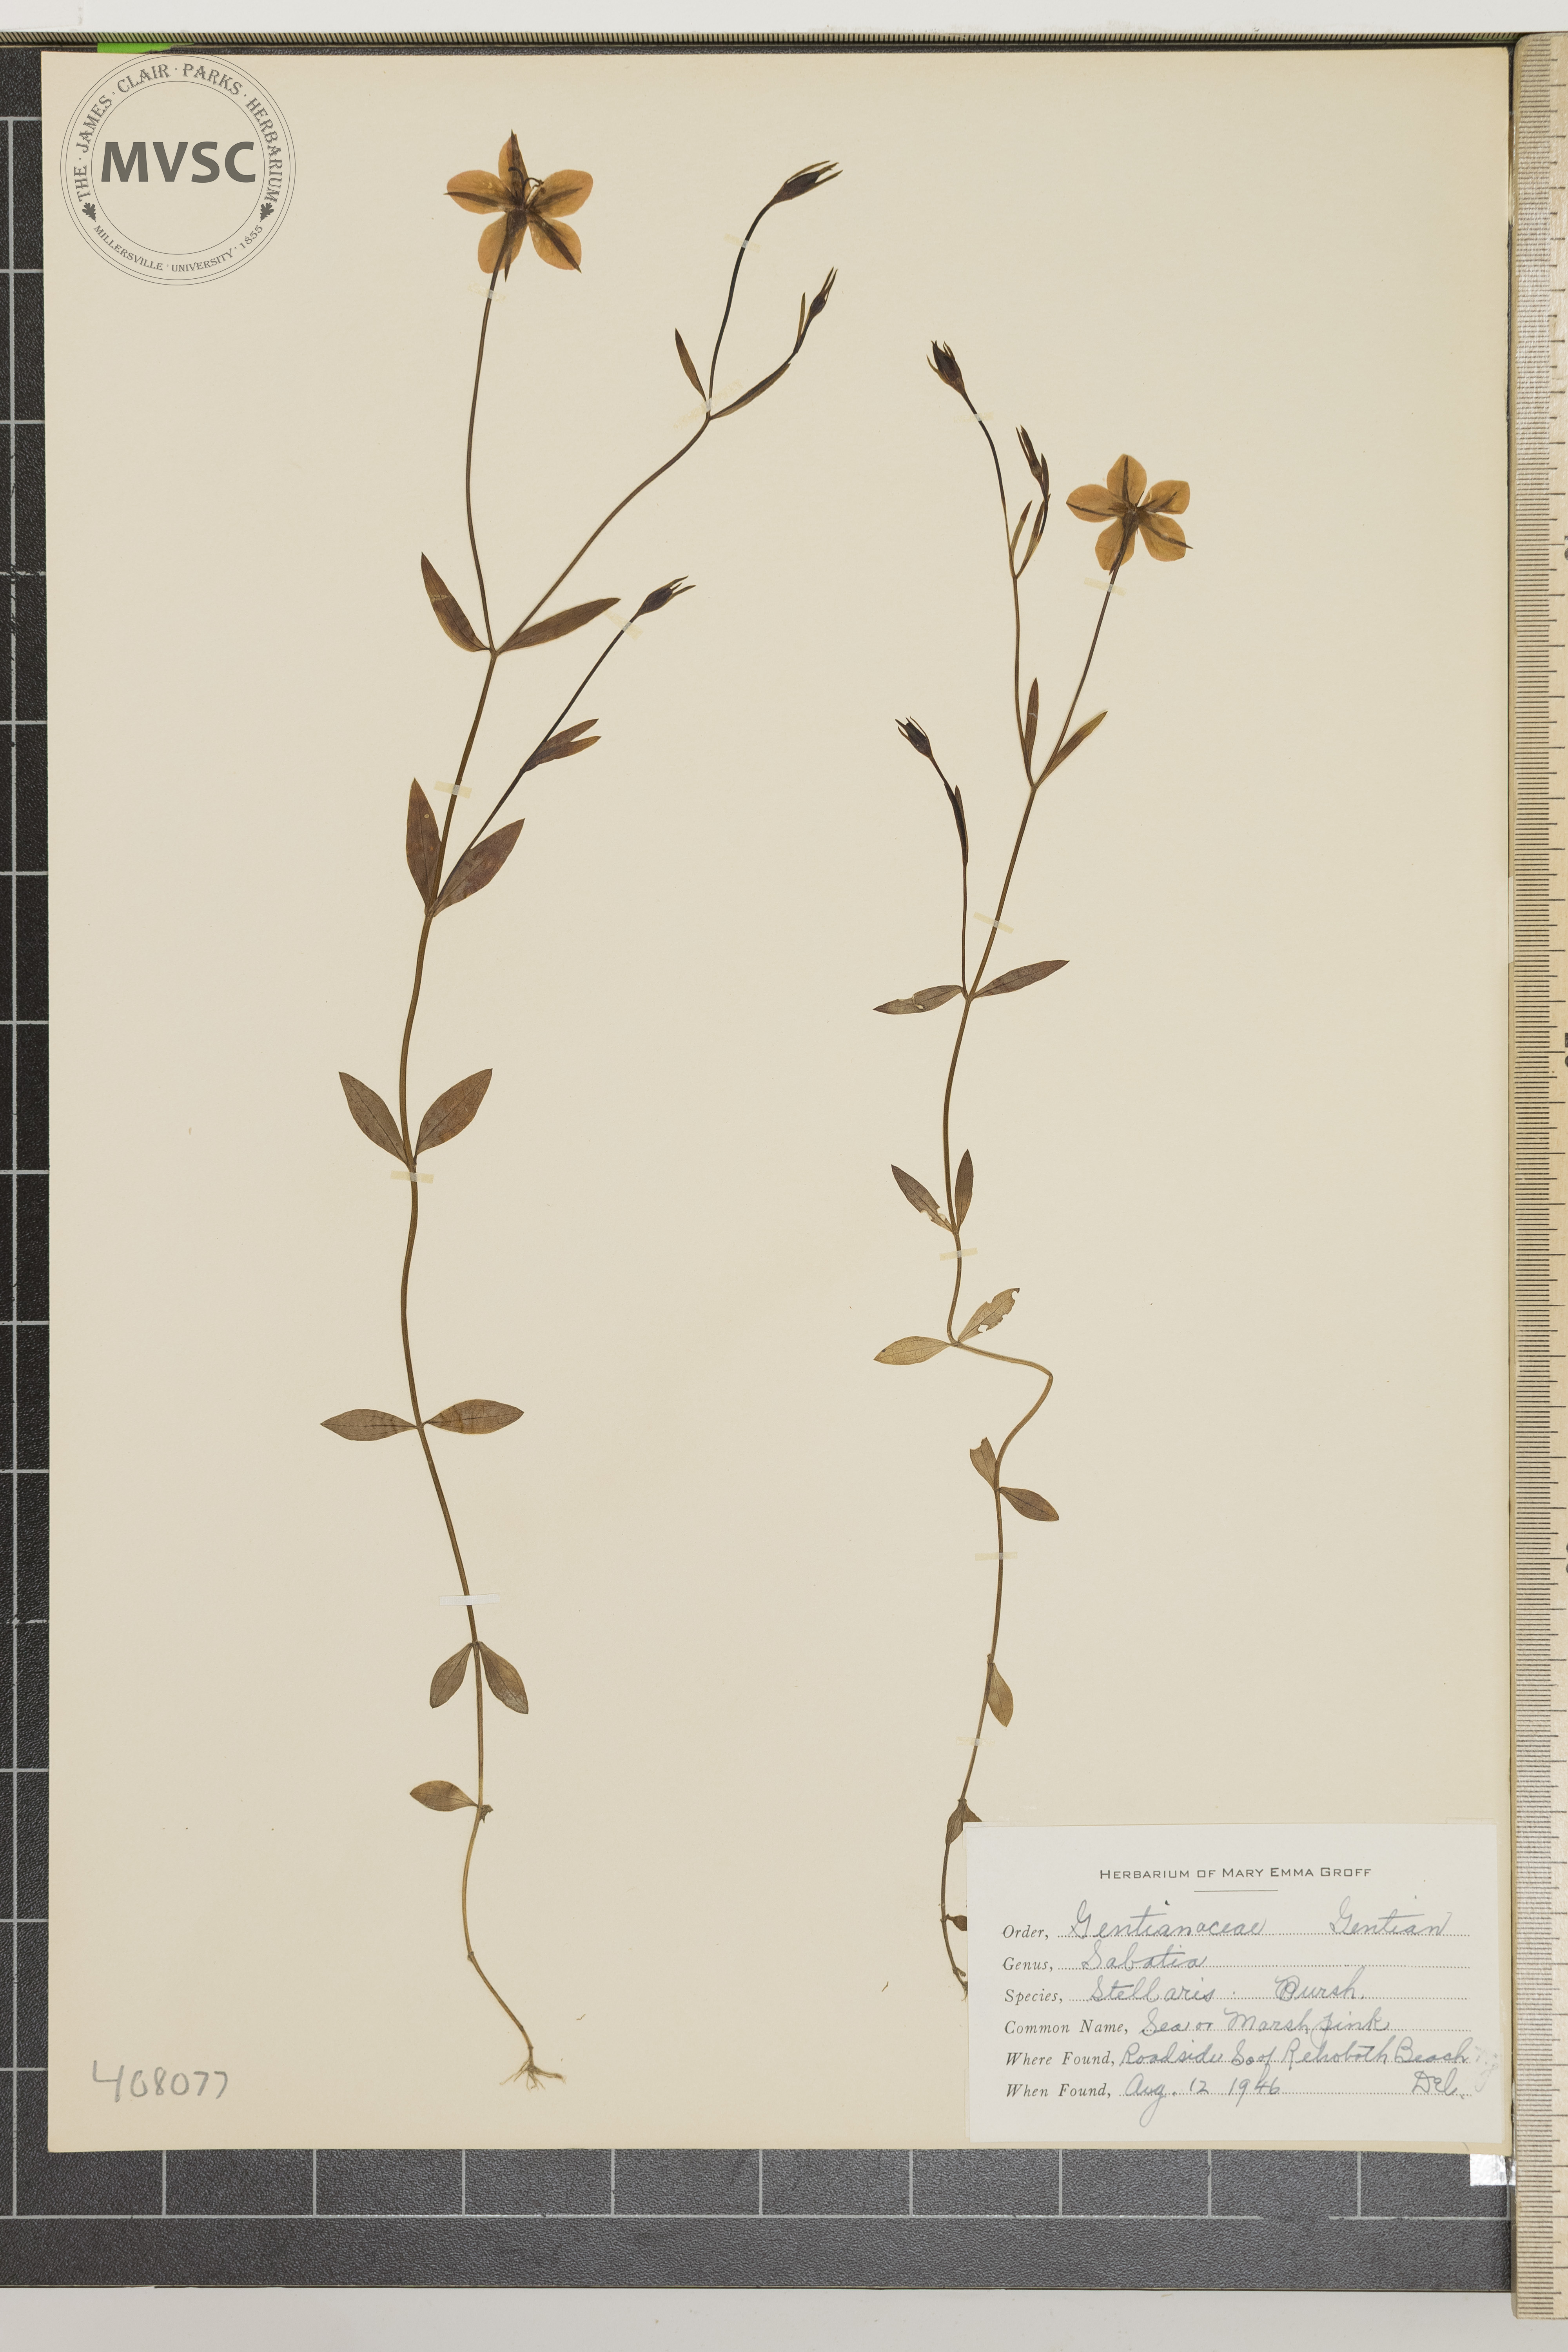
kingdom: Plantae
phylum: Tracheophyta
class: Magnoliopsida
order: Gentianales
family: Gentianaceae
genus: Sabatia
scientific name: Sabatia stellaris
